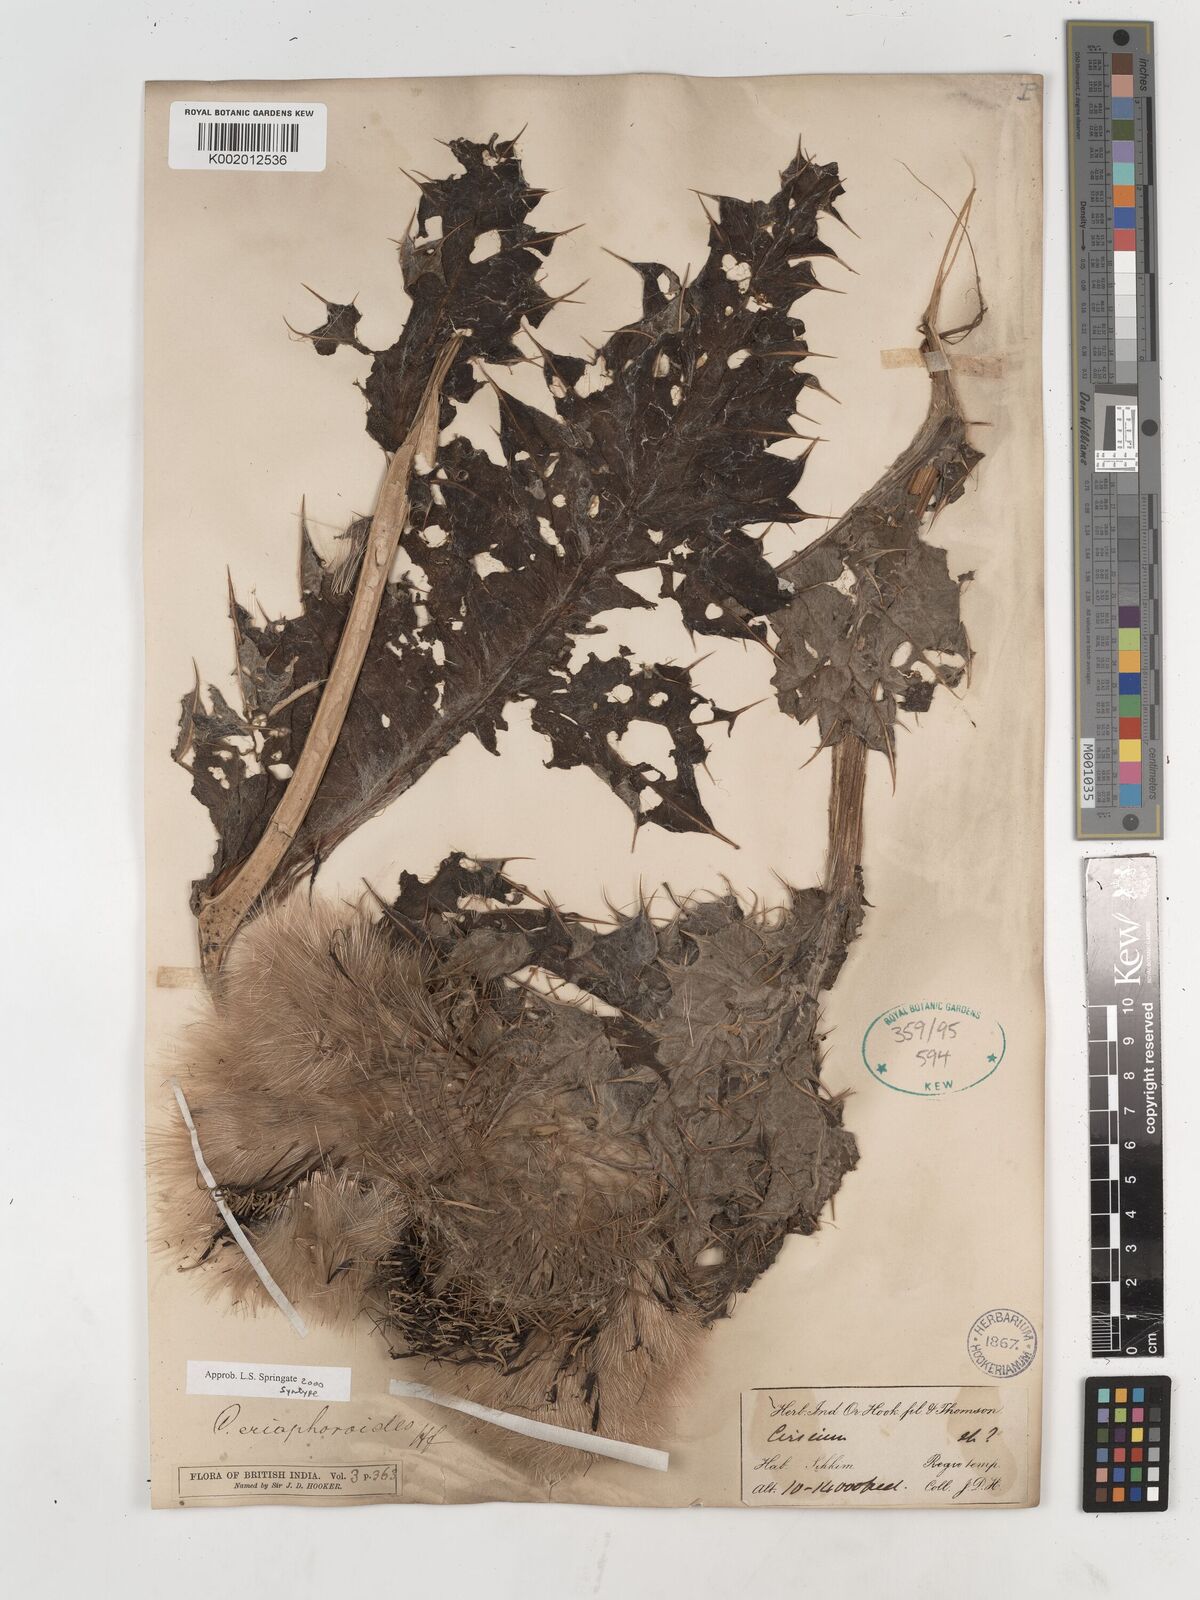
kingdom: Plantae
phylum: Tracheophyta
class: Magnoliopsida
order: Asterales
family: Asteraceae
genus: Cirsium
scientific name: Cirsium eriophoroides
